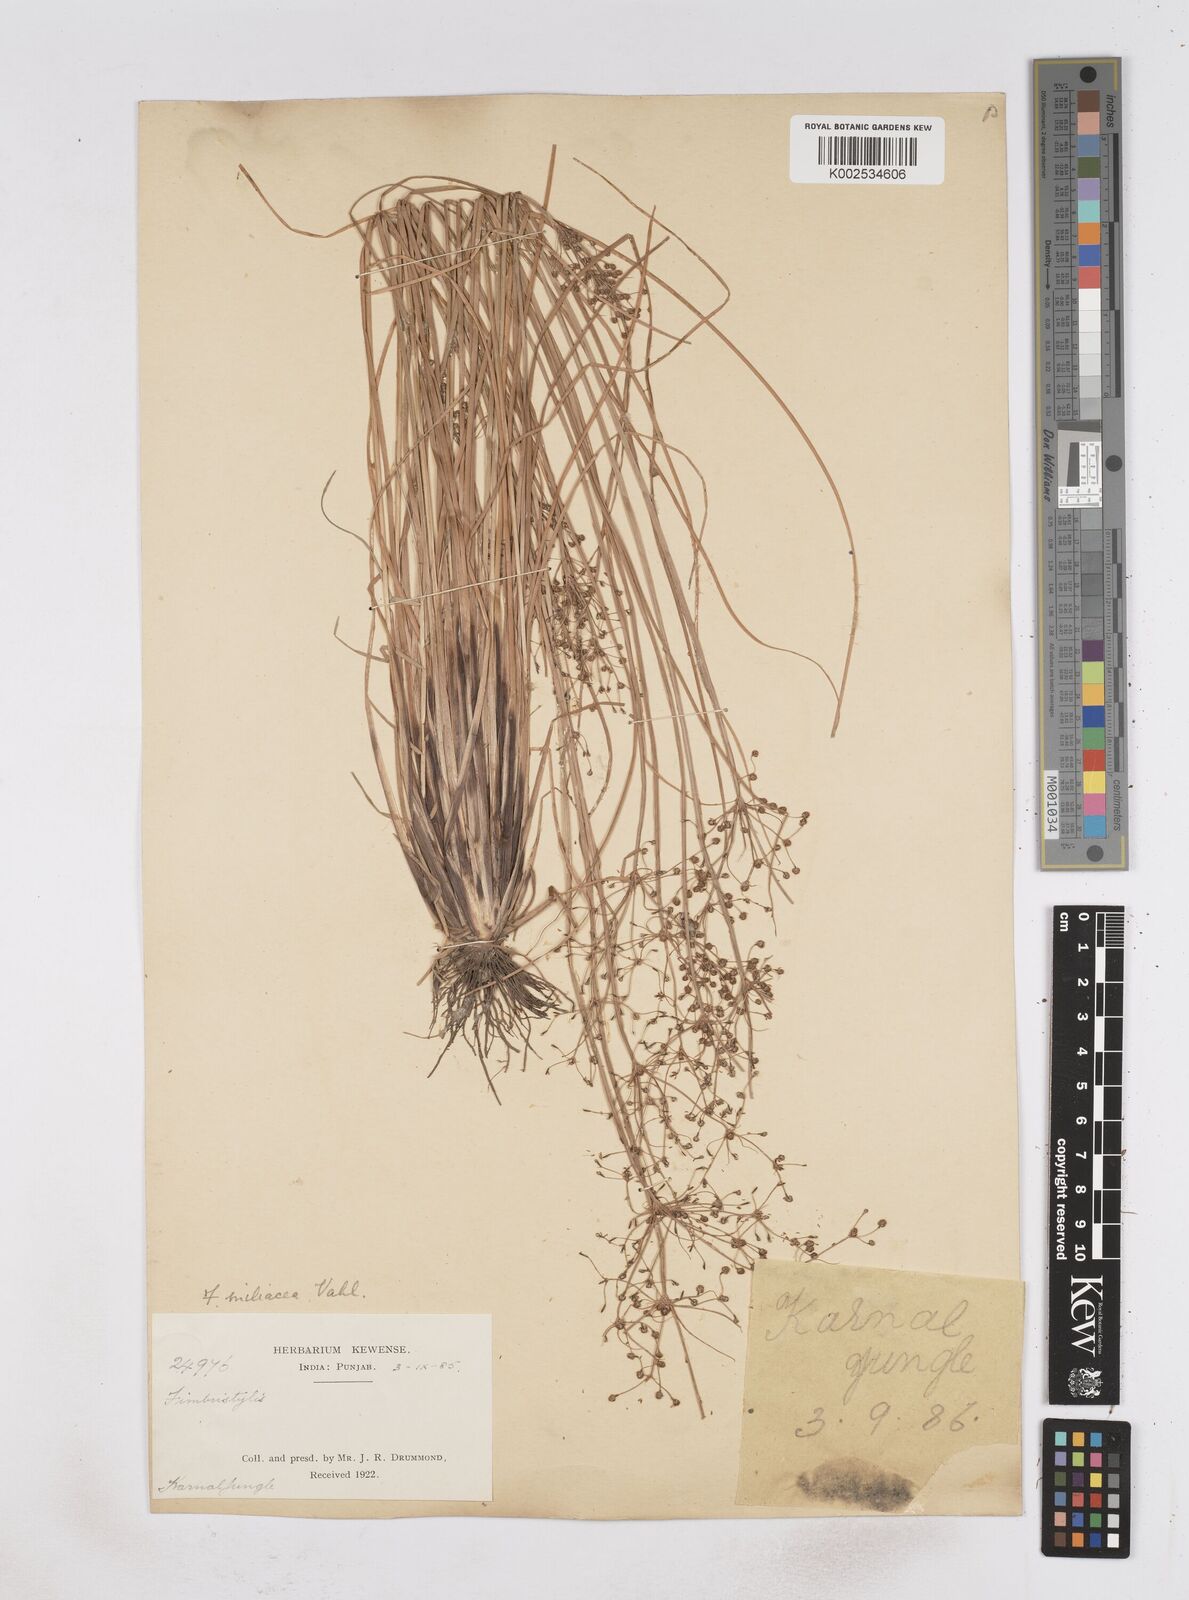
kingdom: Plantae
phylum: Tracheophyta
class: Liliopsida
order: Poales
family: Cyperaceae
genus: Fimbristylis
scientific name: Fimbristylis littoralis
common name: Fimbry
